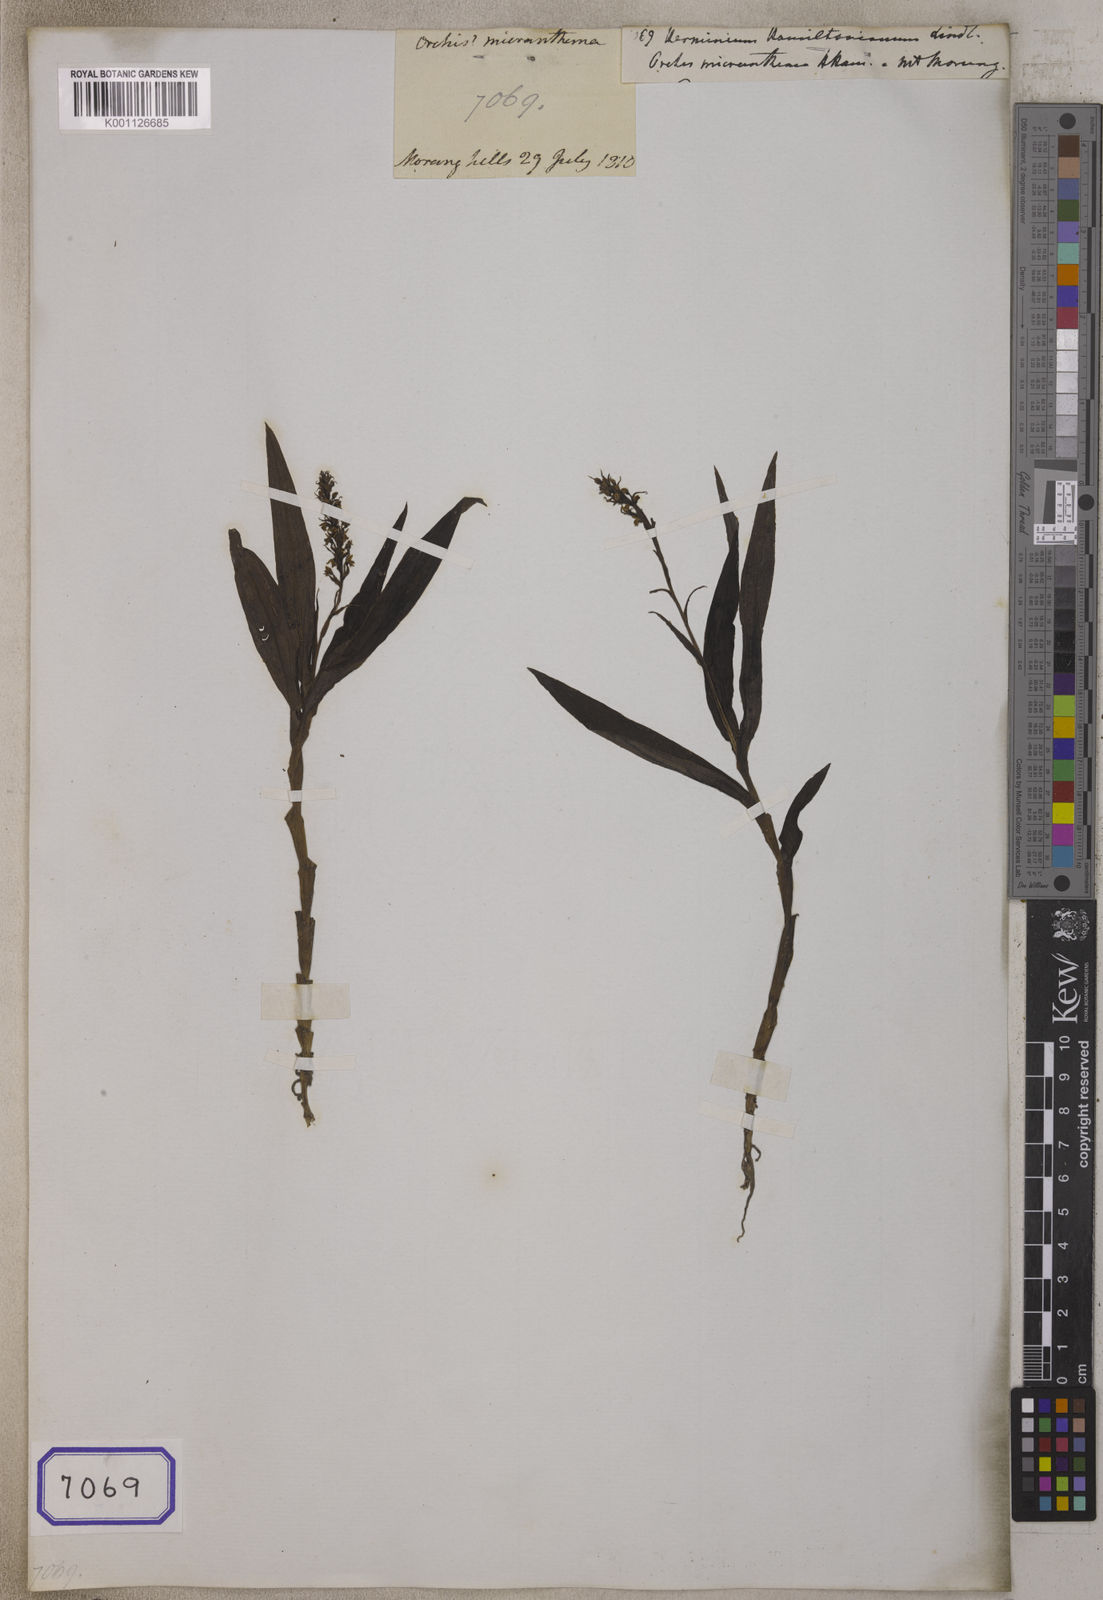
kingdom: Plantae
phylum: Tracheophyta
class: Liliopsida
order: Asparagales
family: Orchidaceae
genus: Peristylus
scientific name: Peristylus hamiltonianus
